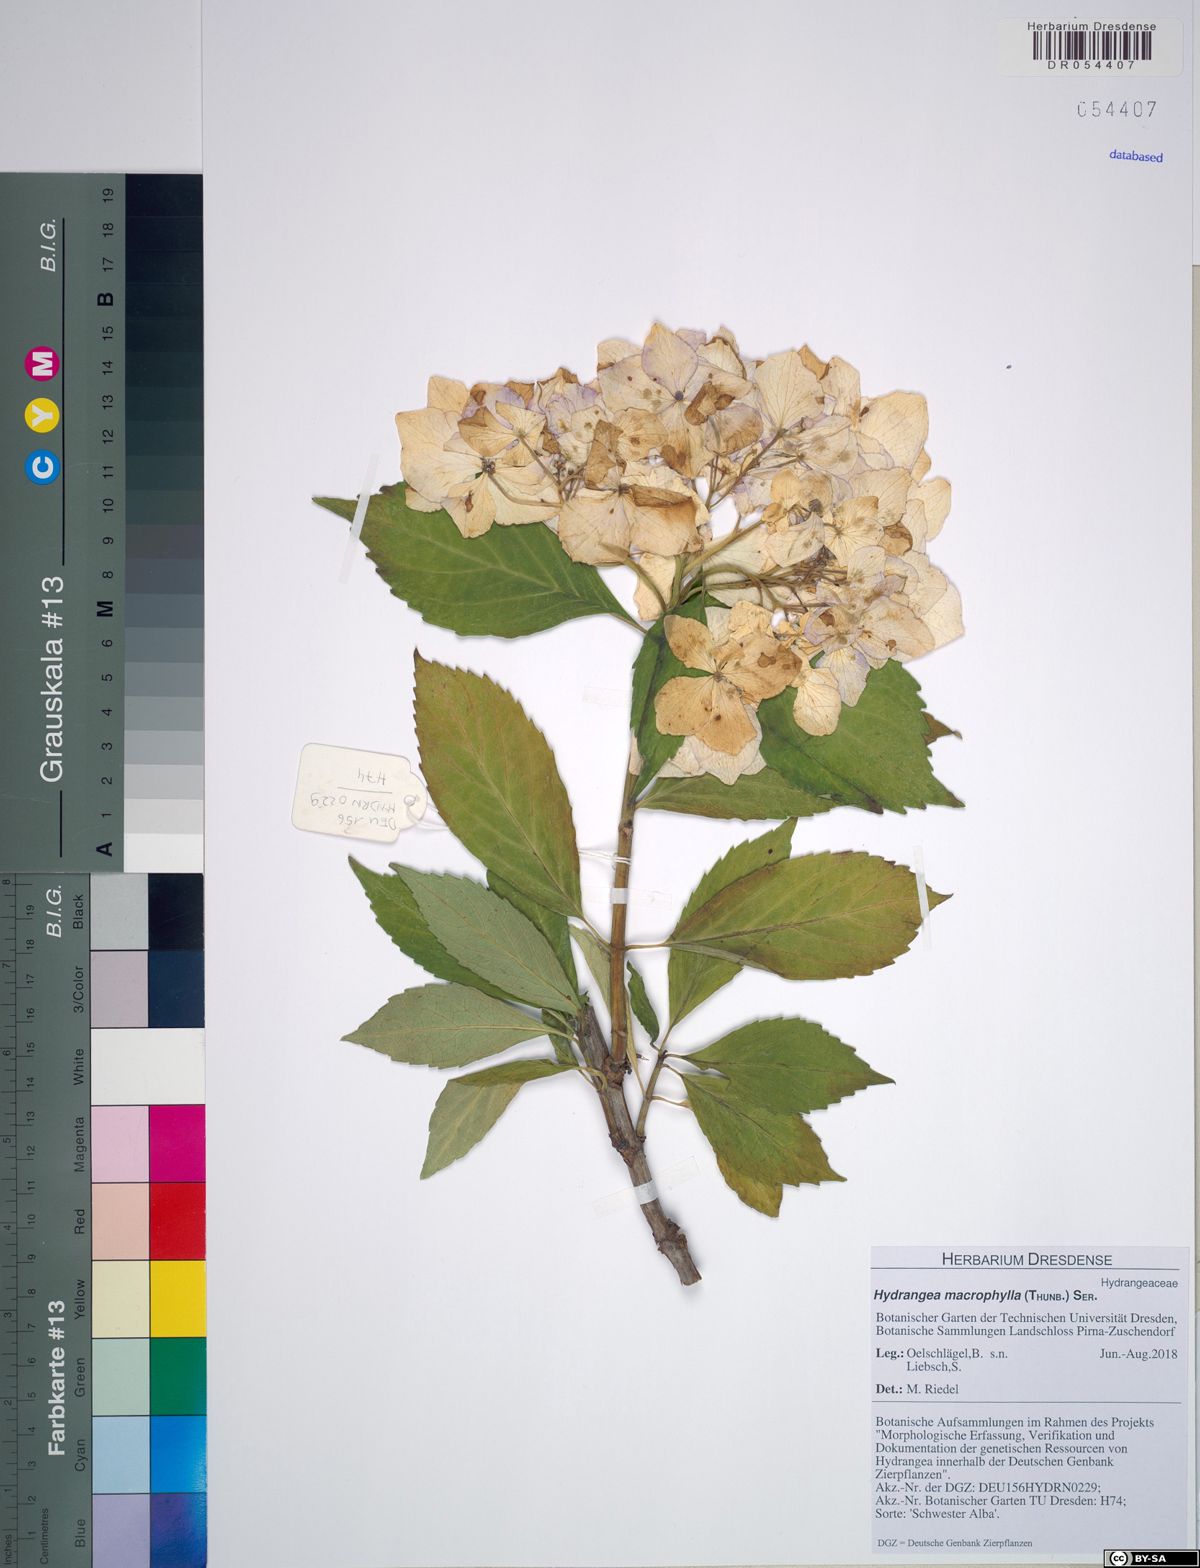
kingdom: Plantae
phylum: Tracheophyta
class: Magnoliopsida
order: Cornales
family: Hydrangeaceae
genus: Hydrangea
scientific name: Hydrangea macrophylla
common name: Hydrangea
